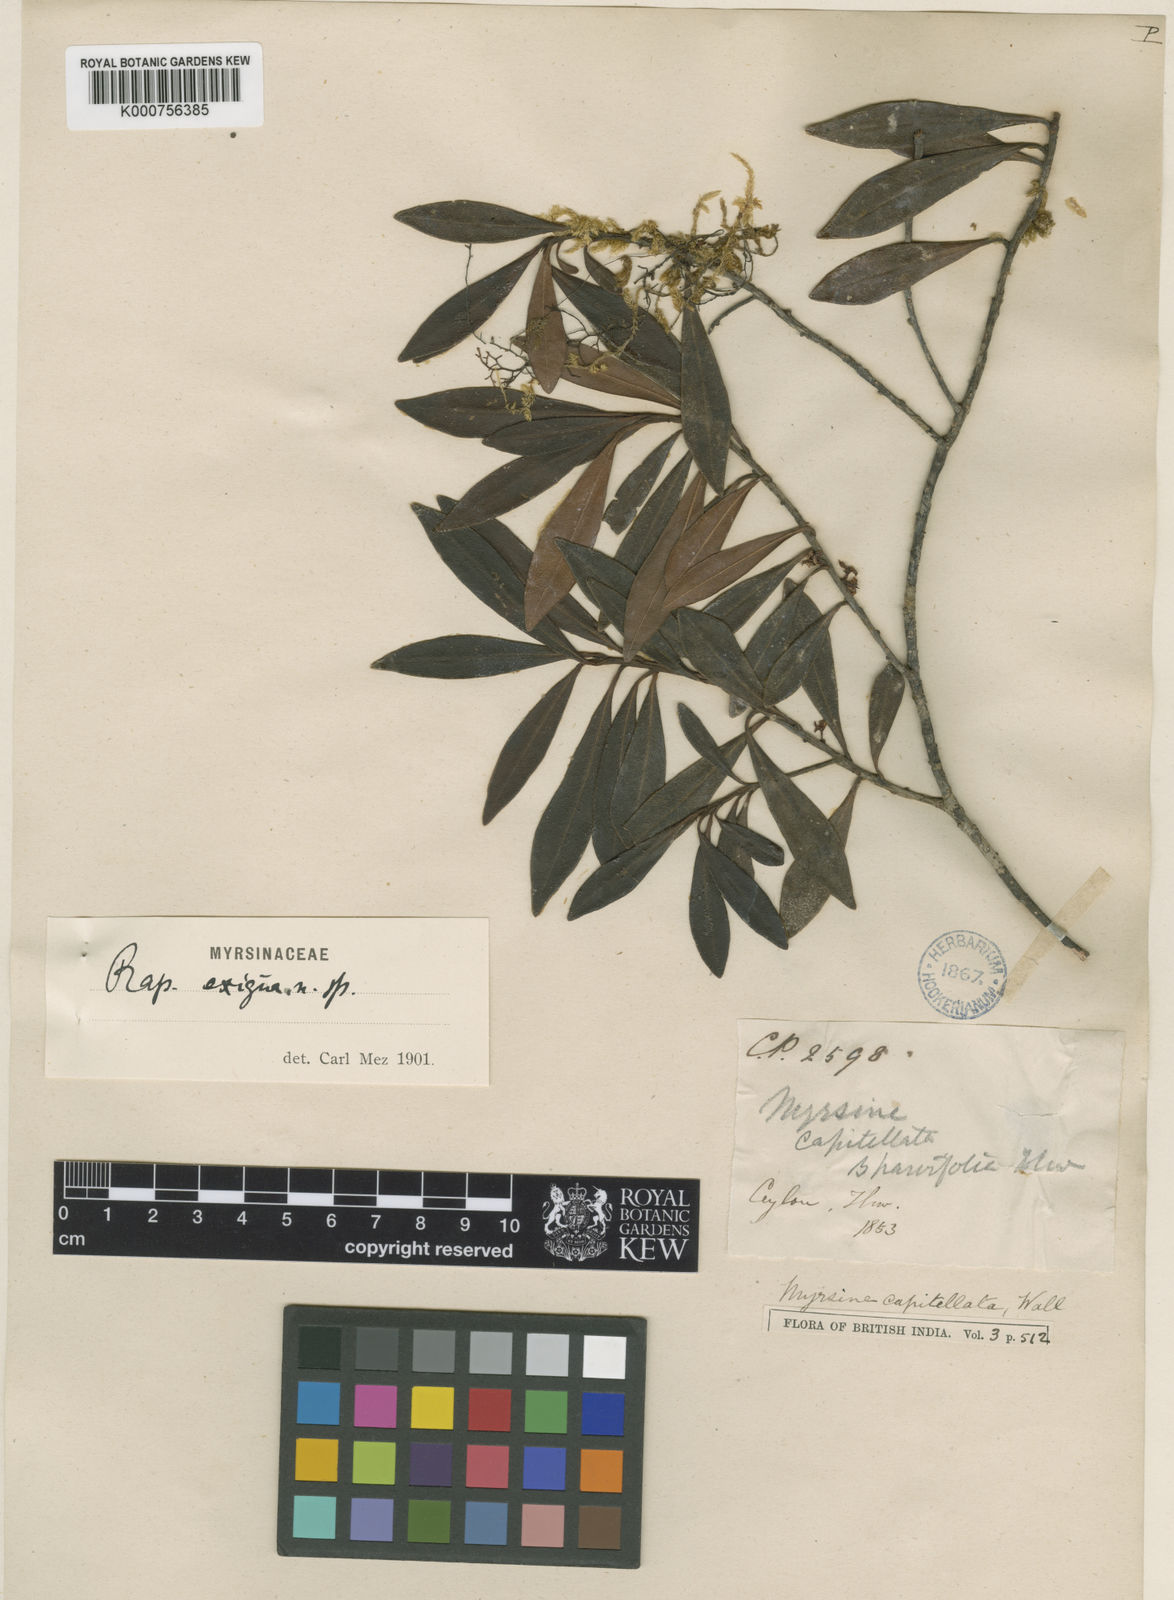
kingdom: Plantae
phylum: Tracheophyta
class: Magnoliopsida
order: Ericales
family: Primulaceae
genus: Myrsine
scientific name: Myrsine
